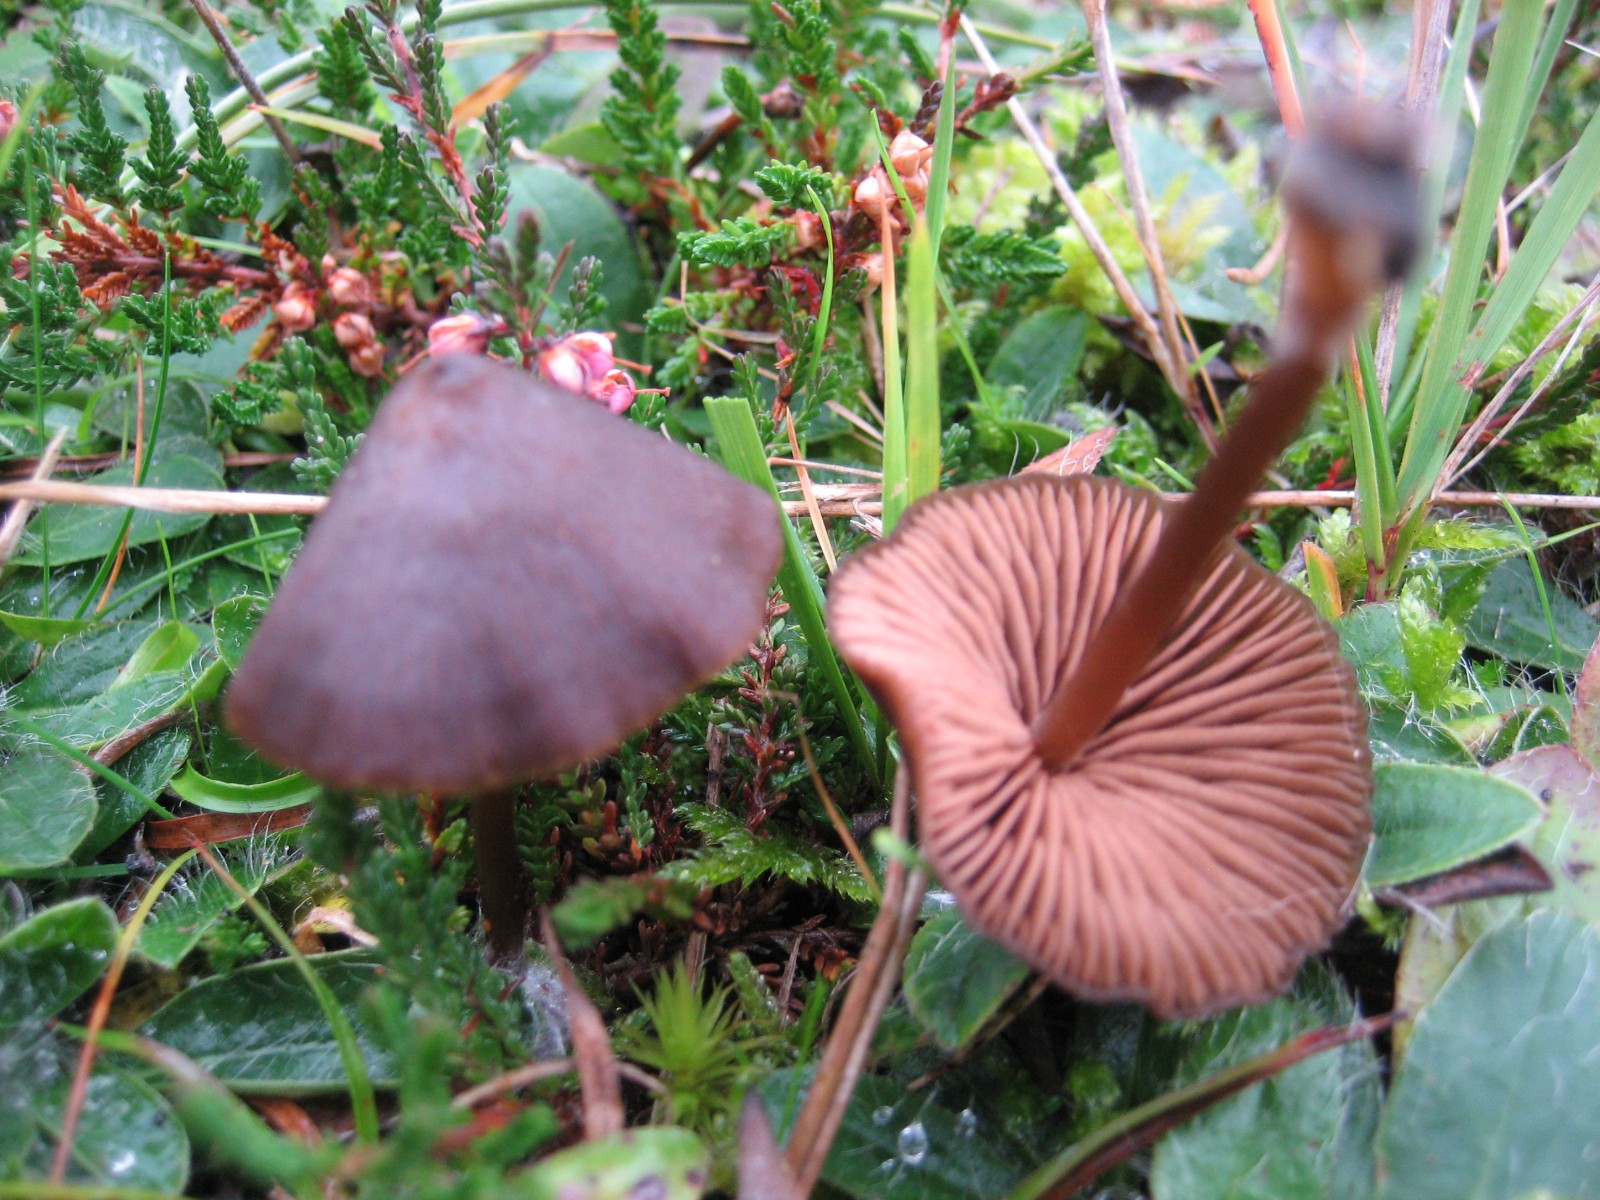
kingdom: Fungi
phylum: Basidiomycota
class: Agaricomycetes
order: Agaricales
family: Entolomataceae
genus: Entoloma
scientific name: Entoloma
